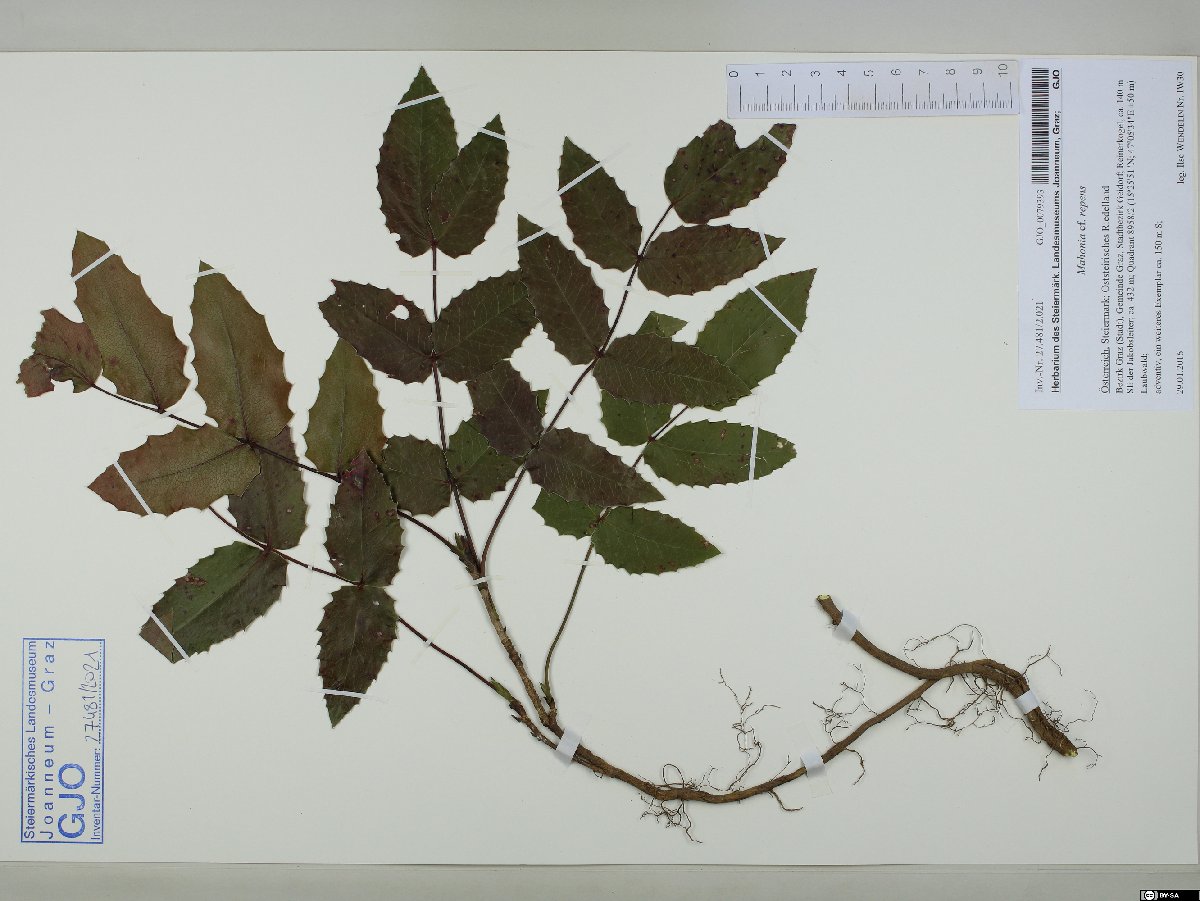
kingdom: Plantae
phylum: Tracheophyta
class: Magnoliopsida
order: Ranunculales
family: Berberidaceae
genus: Mahonia
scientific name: Mahonia repens
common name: Creeping oregon-grape
